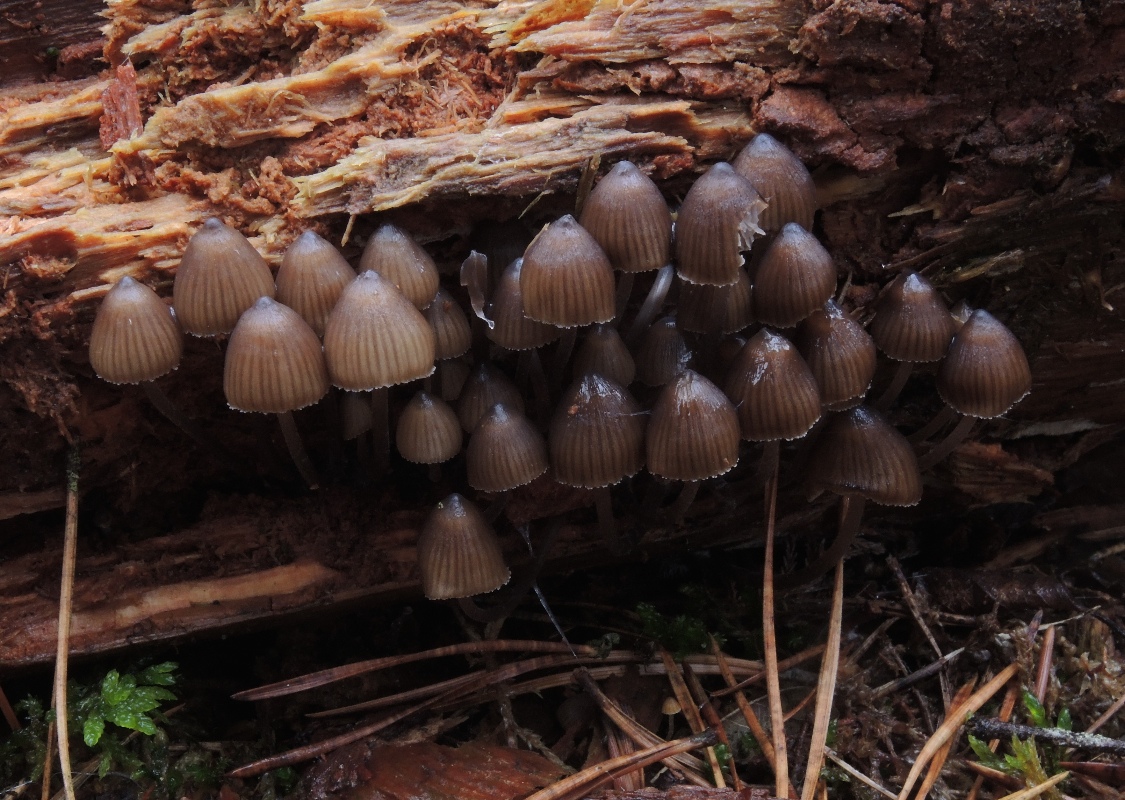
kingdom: Fungi
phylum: Basidiomycota
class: Agaricomycetes
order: Agaricales
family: Mycenaceae
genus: Mycena
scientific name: Mycena stipata
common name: stinkende huesvamp
